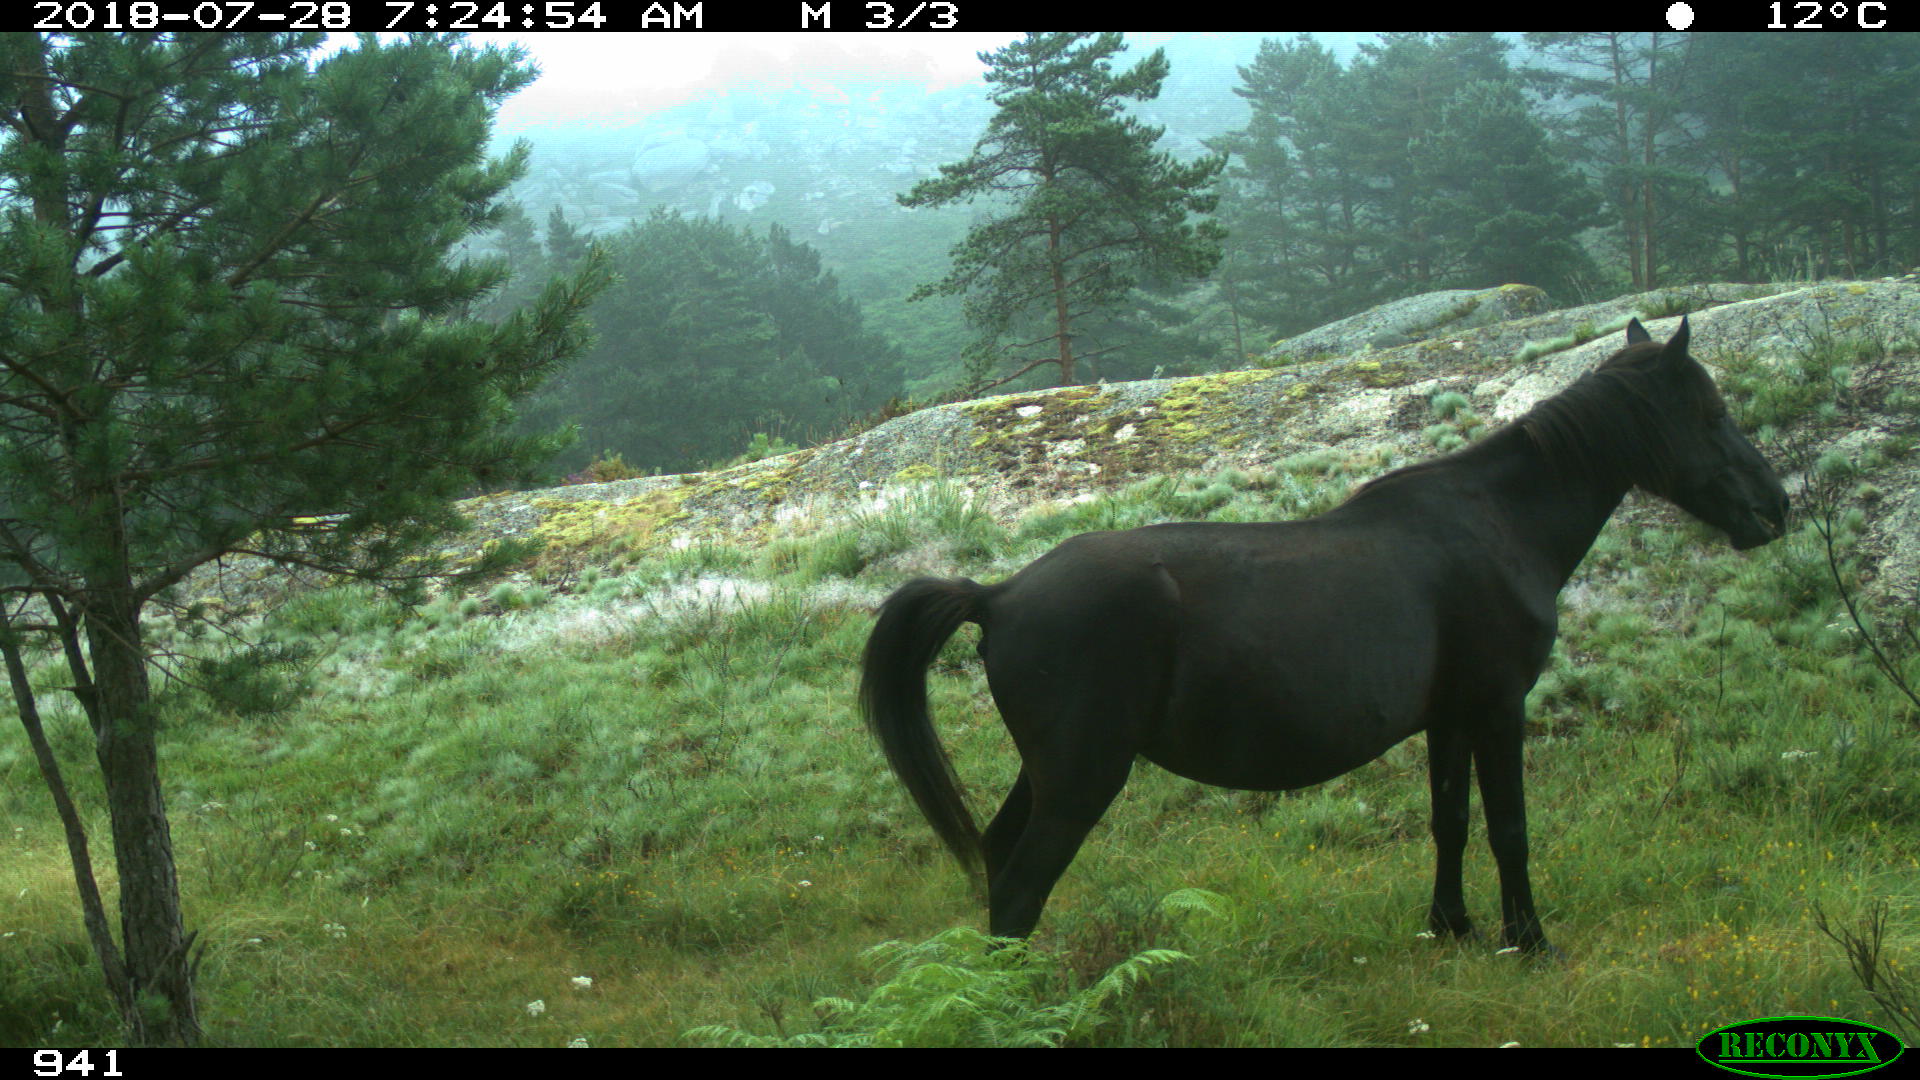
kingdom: Animalia
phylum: Chordata
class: Mammalia
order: Perissodactyla
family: Equidae
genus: Equus
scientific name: Equus caballus
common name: Horse
